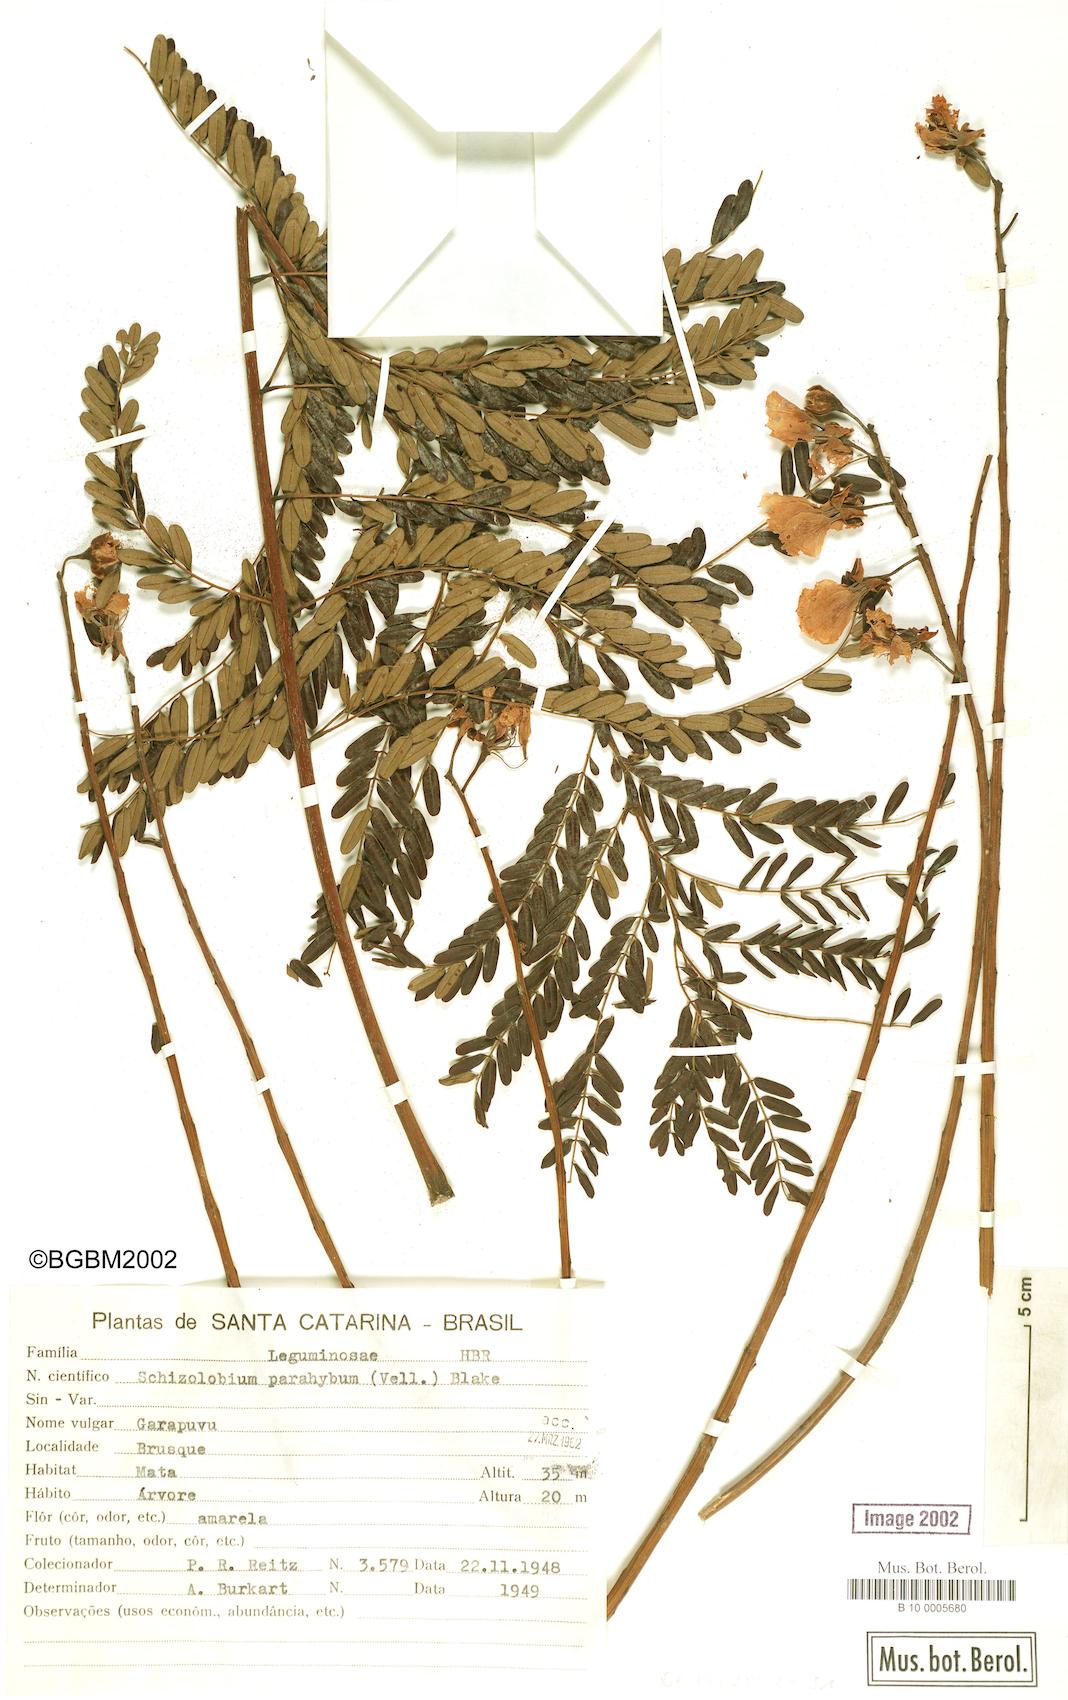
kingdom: Plantae
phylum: Tracheophyta
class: Magnoliopsida
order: Fabales
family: Fabaceae
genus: Schizolobium
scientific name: Schizolobium parahyba
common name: Brazilian firetree
